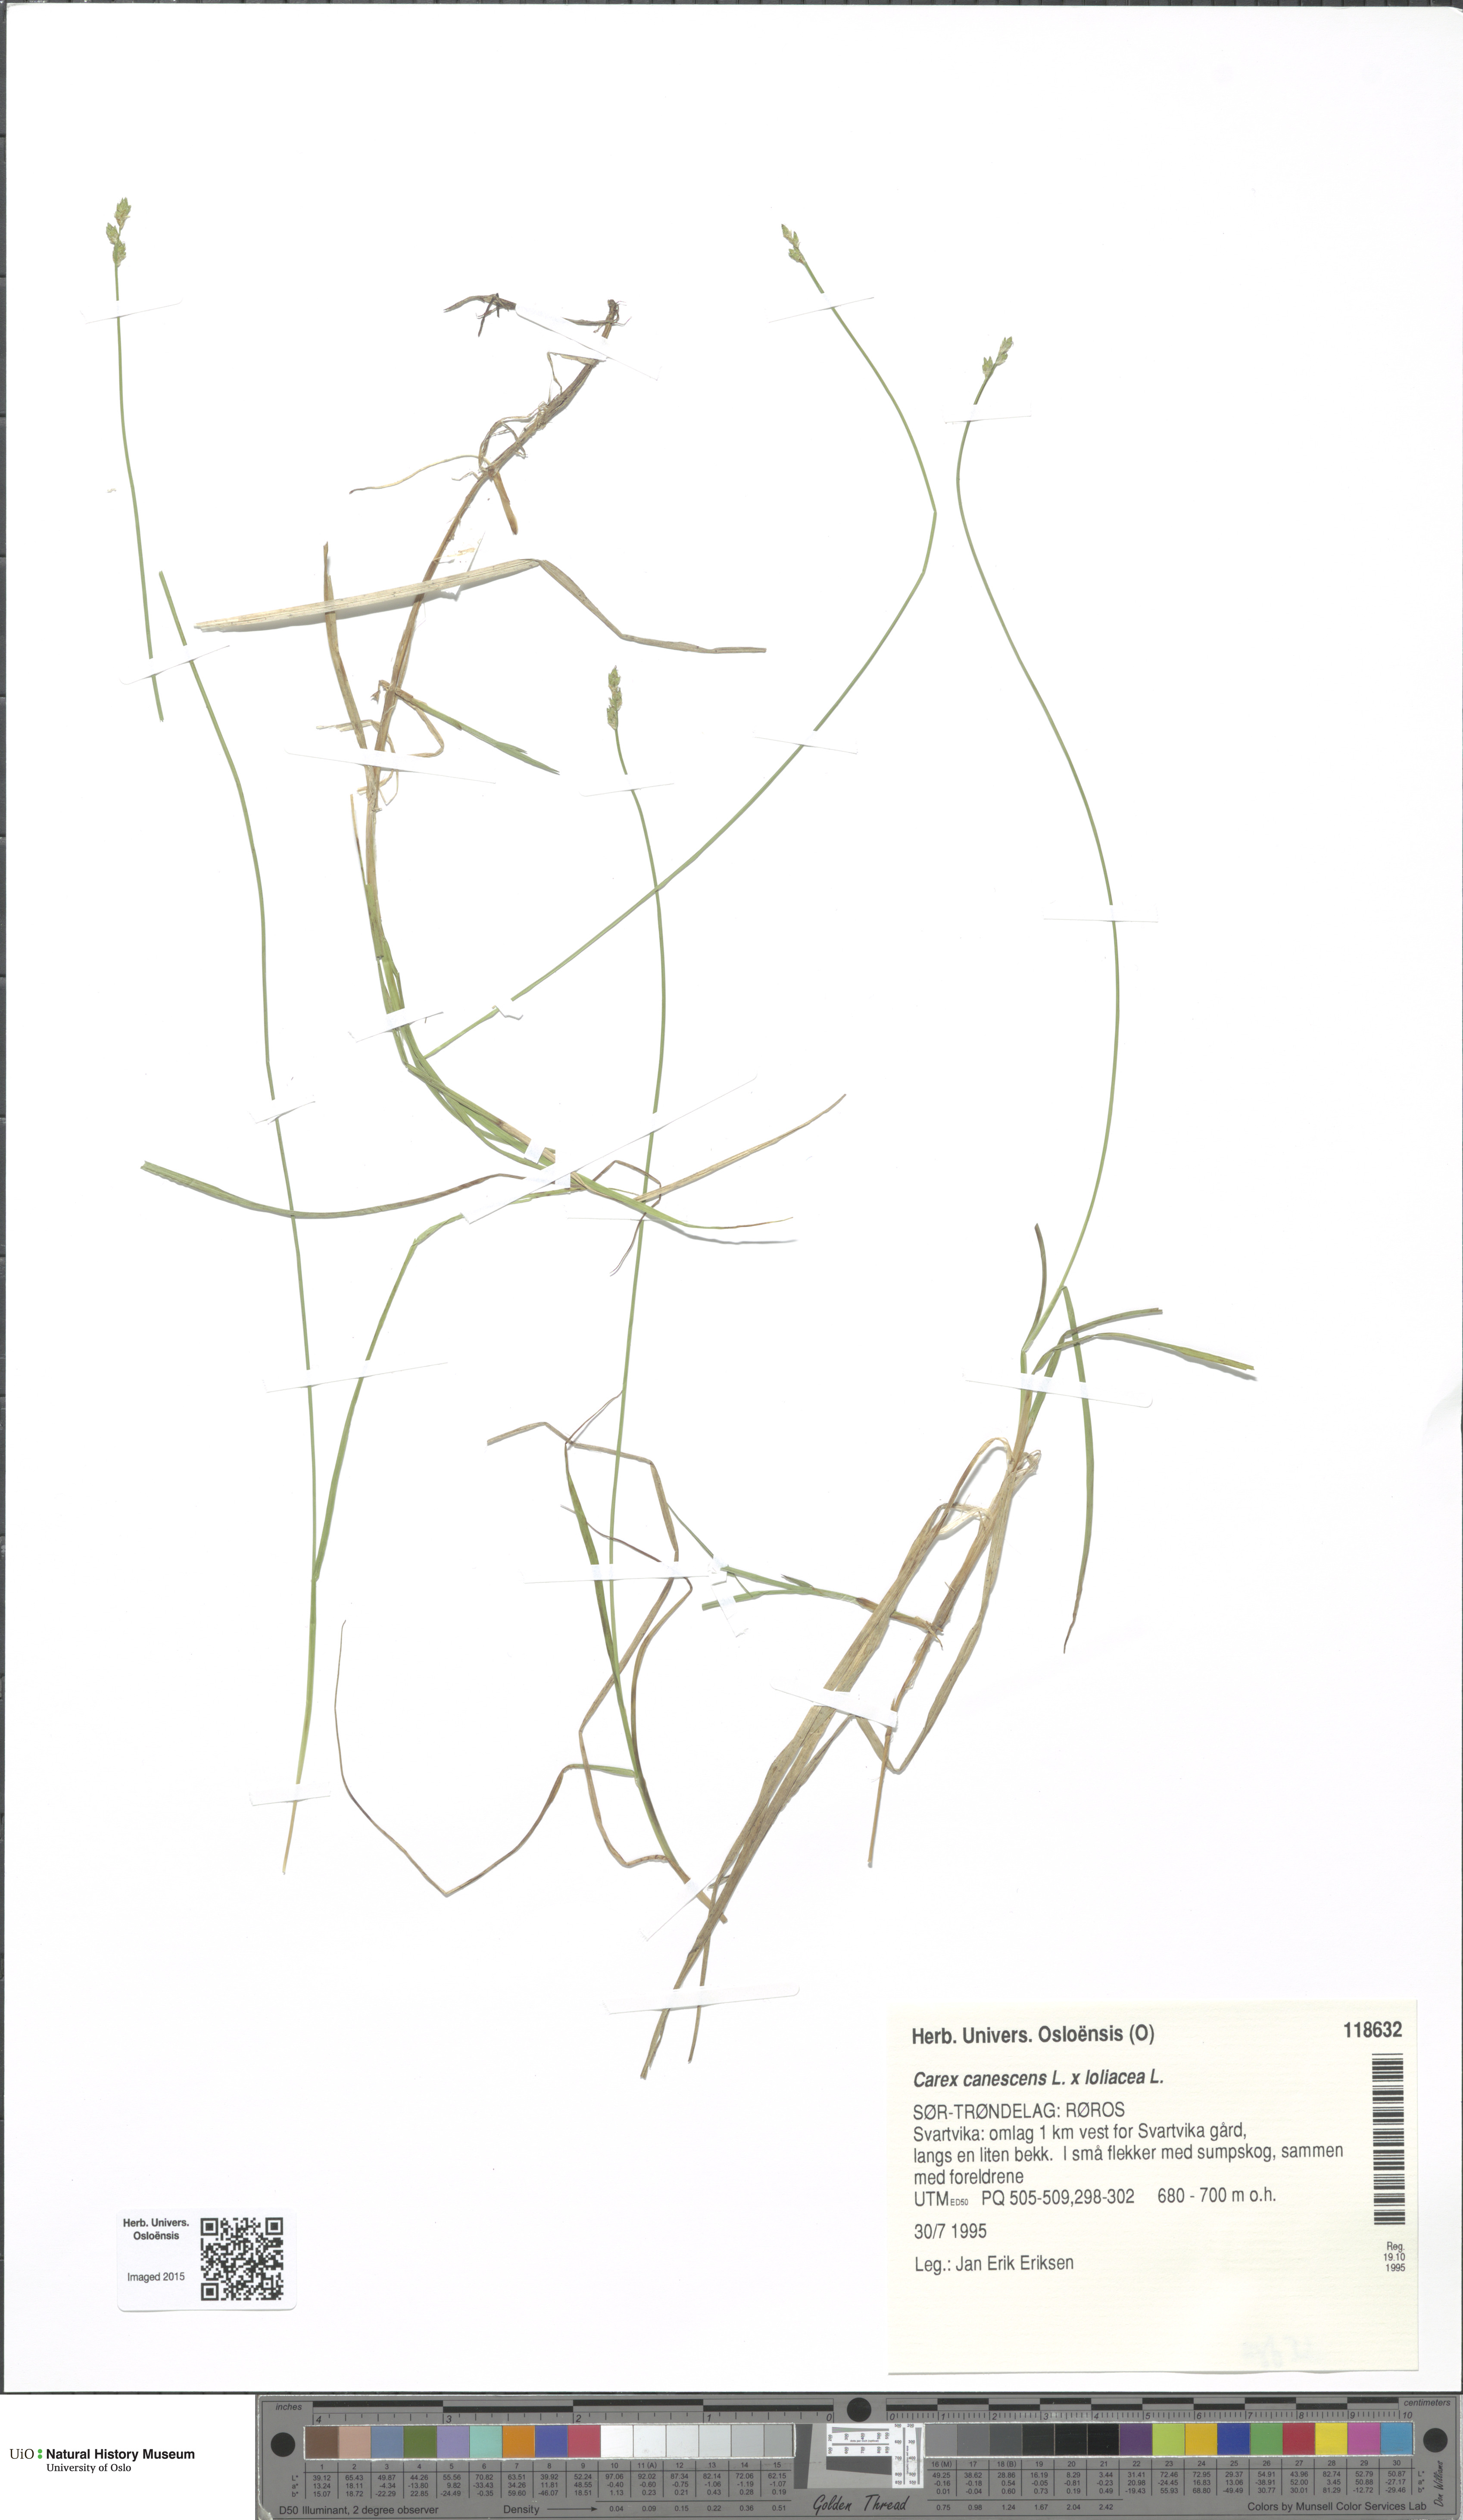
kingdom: Plantae
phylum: Tracheophyta
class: Liliopsida
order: Poales
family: Cyperaceae
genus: Carex
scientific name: Carex
